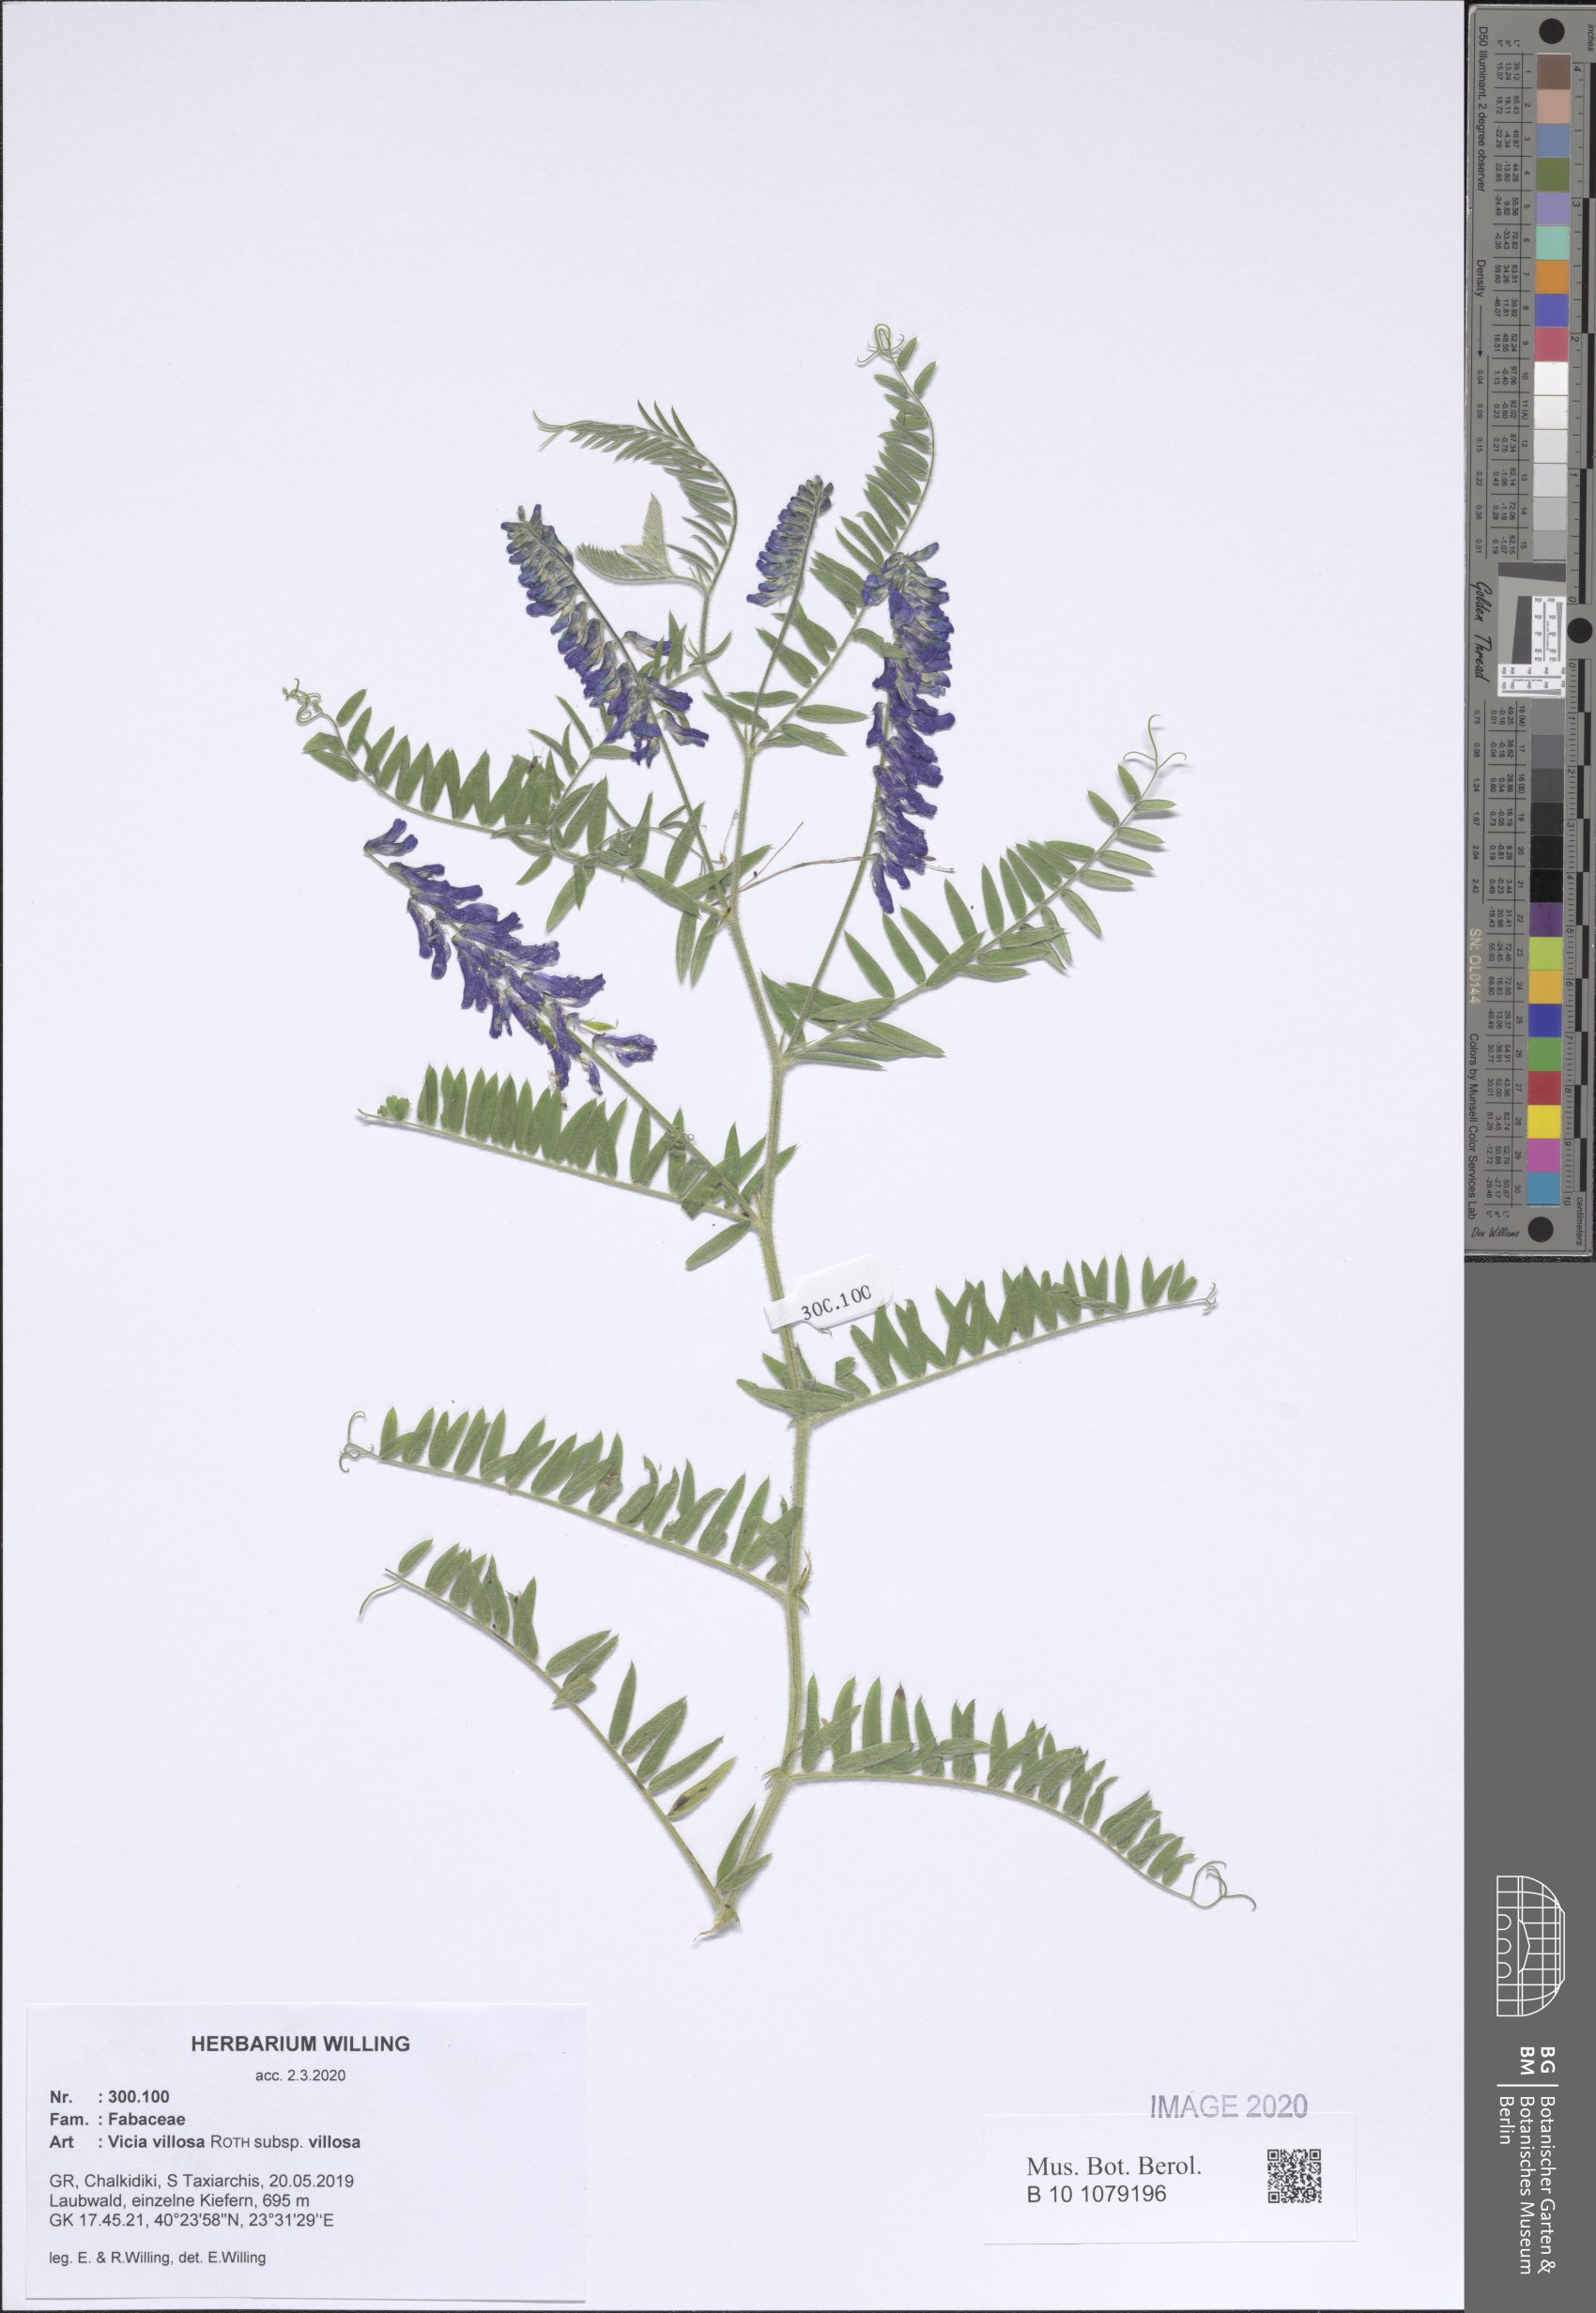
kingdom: Plantae
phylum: Tracheophyta
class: Magnoliopsida
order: Fabales
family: Fabaceae
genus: Vicia
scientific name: Vicia villosa
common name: Fodder vetch
